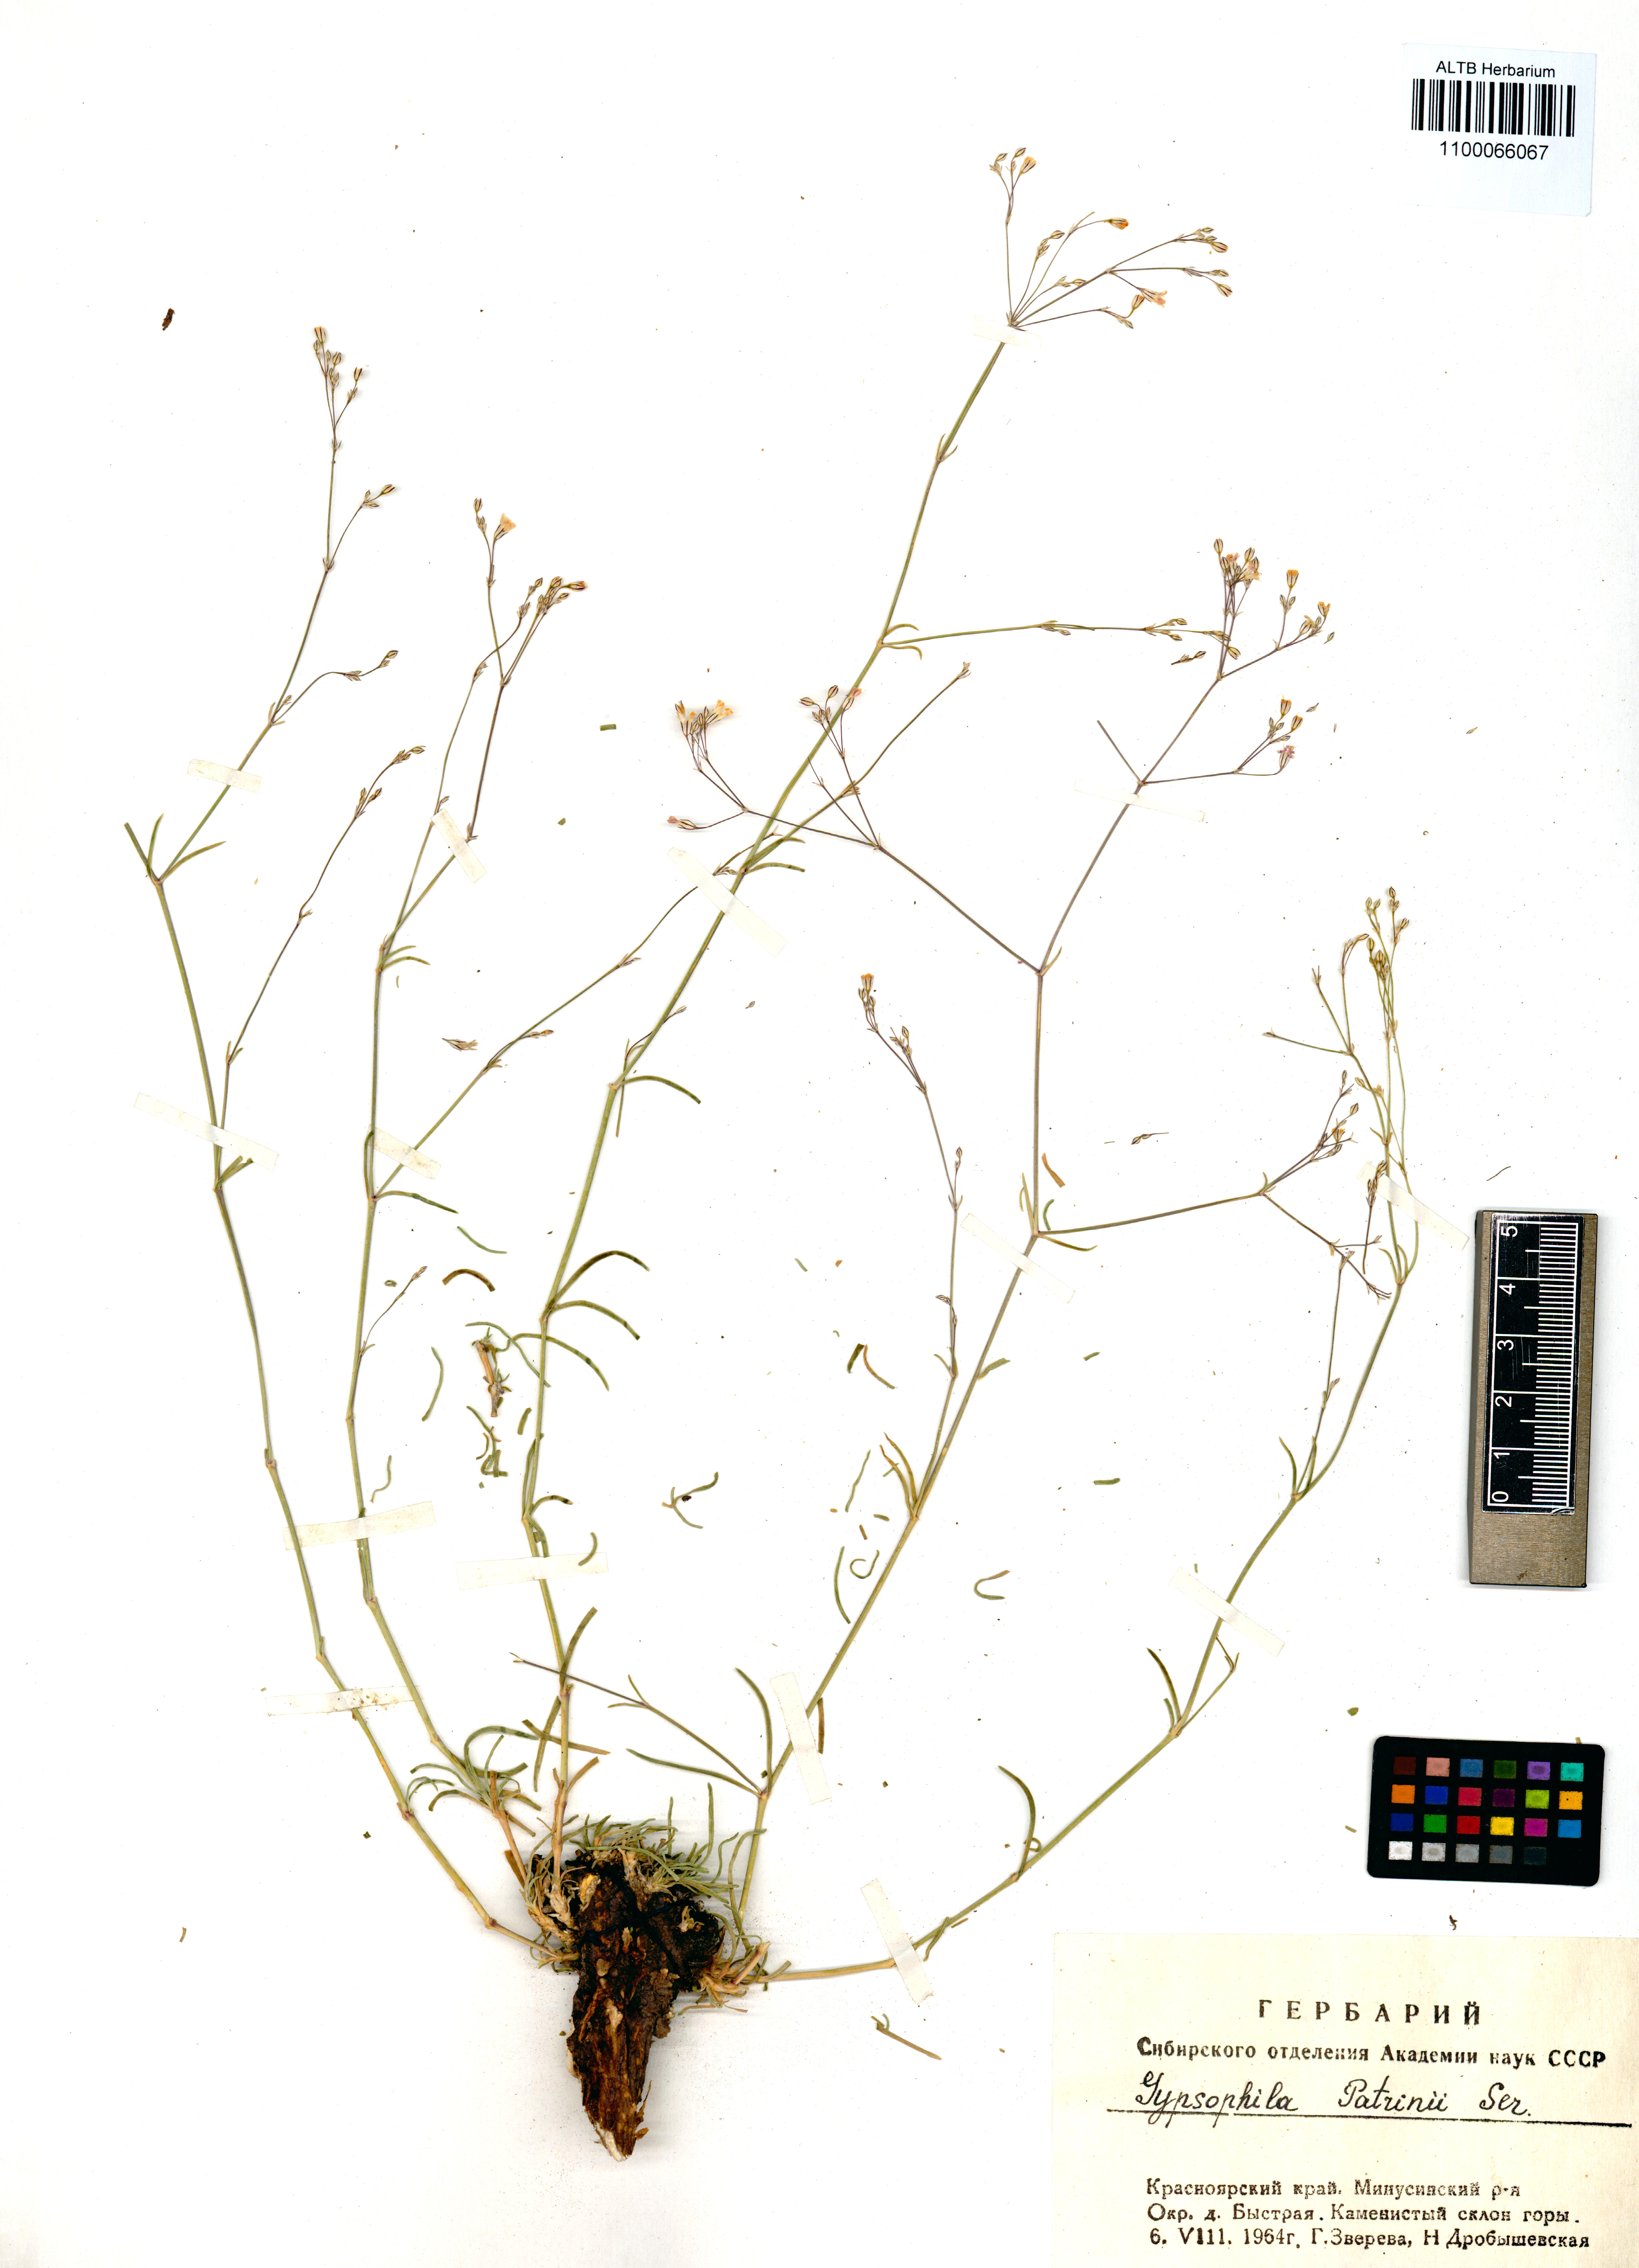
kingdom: Plantae
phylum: Tracheophyta
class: Magnoliopsida
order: Caryophyllales
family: Caryophyllaceae
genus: Gypsophila
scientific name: Gypsophila patrinii
